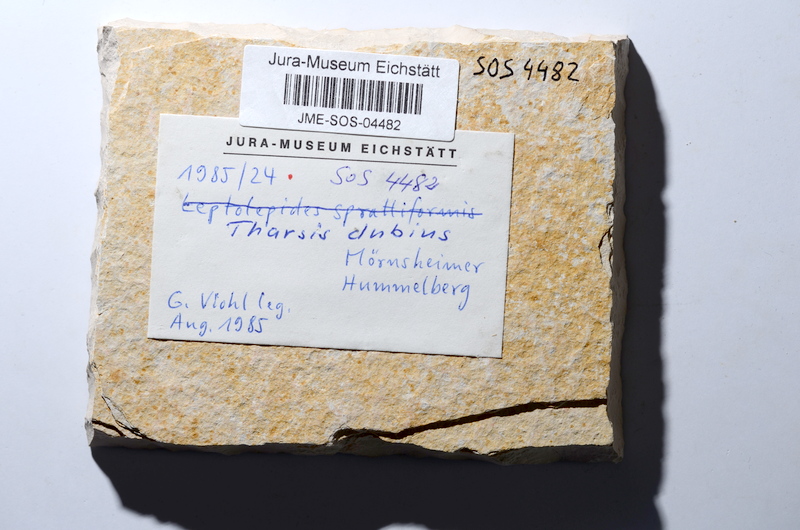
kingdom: Animalia
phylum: Chordata
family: Ascalaboidae
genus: Tharsis
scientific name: Tharsis dubius
